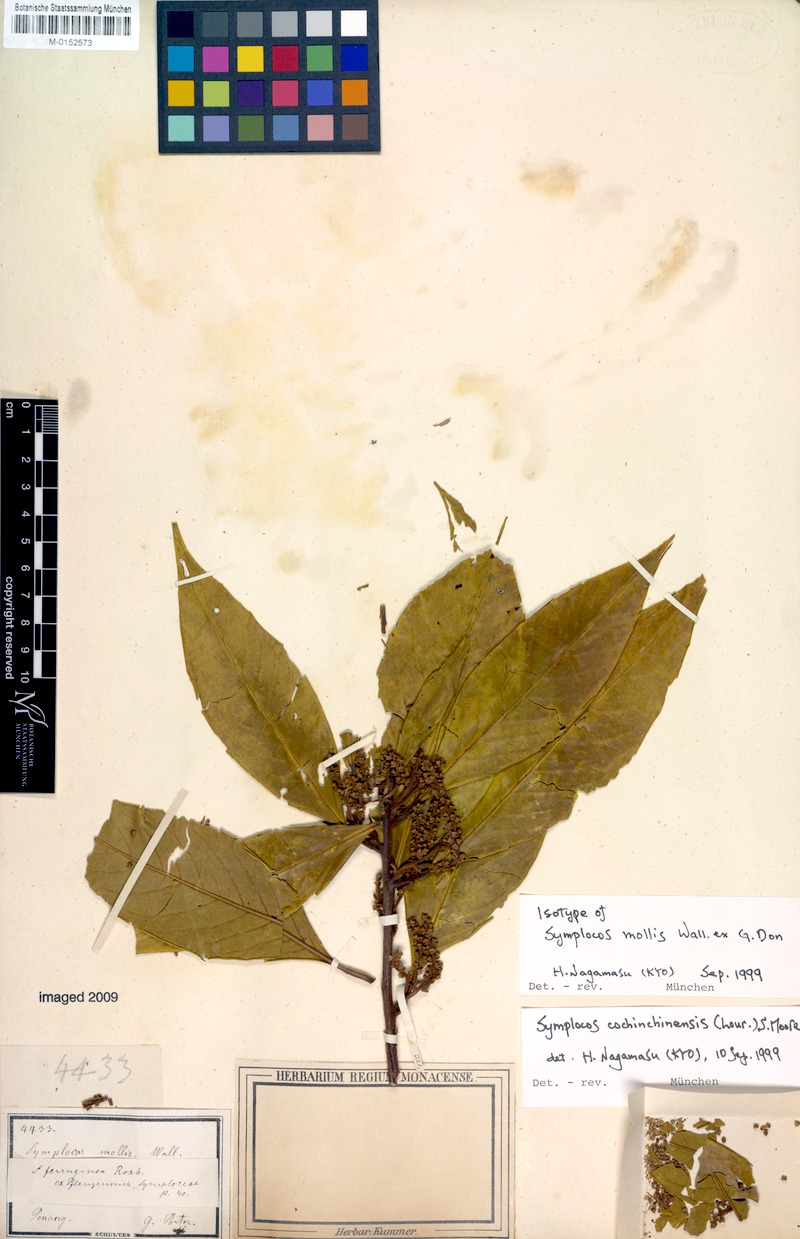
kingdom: Plantae
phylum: Tracheophyta
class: Magnoliopsida
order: Ericales
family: Symplocaceae
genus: Symplocos
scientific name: Symplocos cochinchinensis
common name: Buff hazelwood
